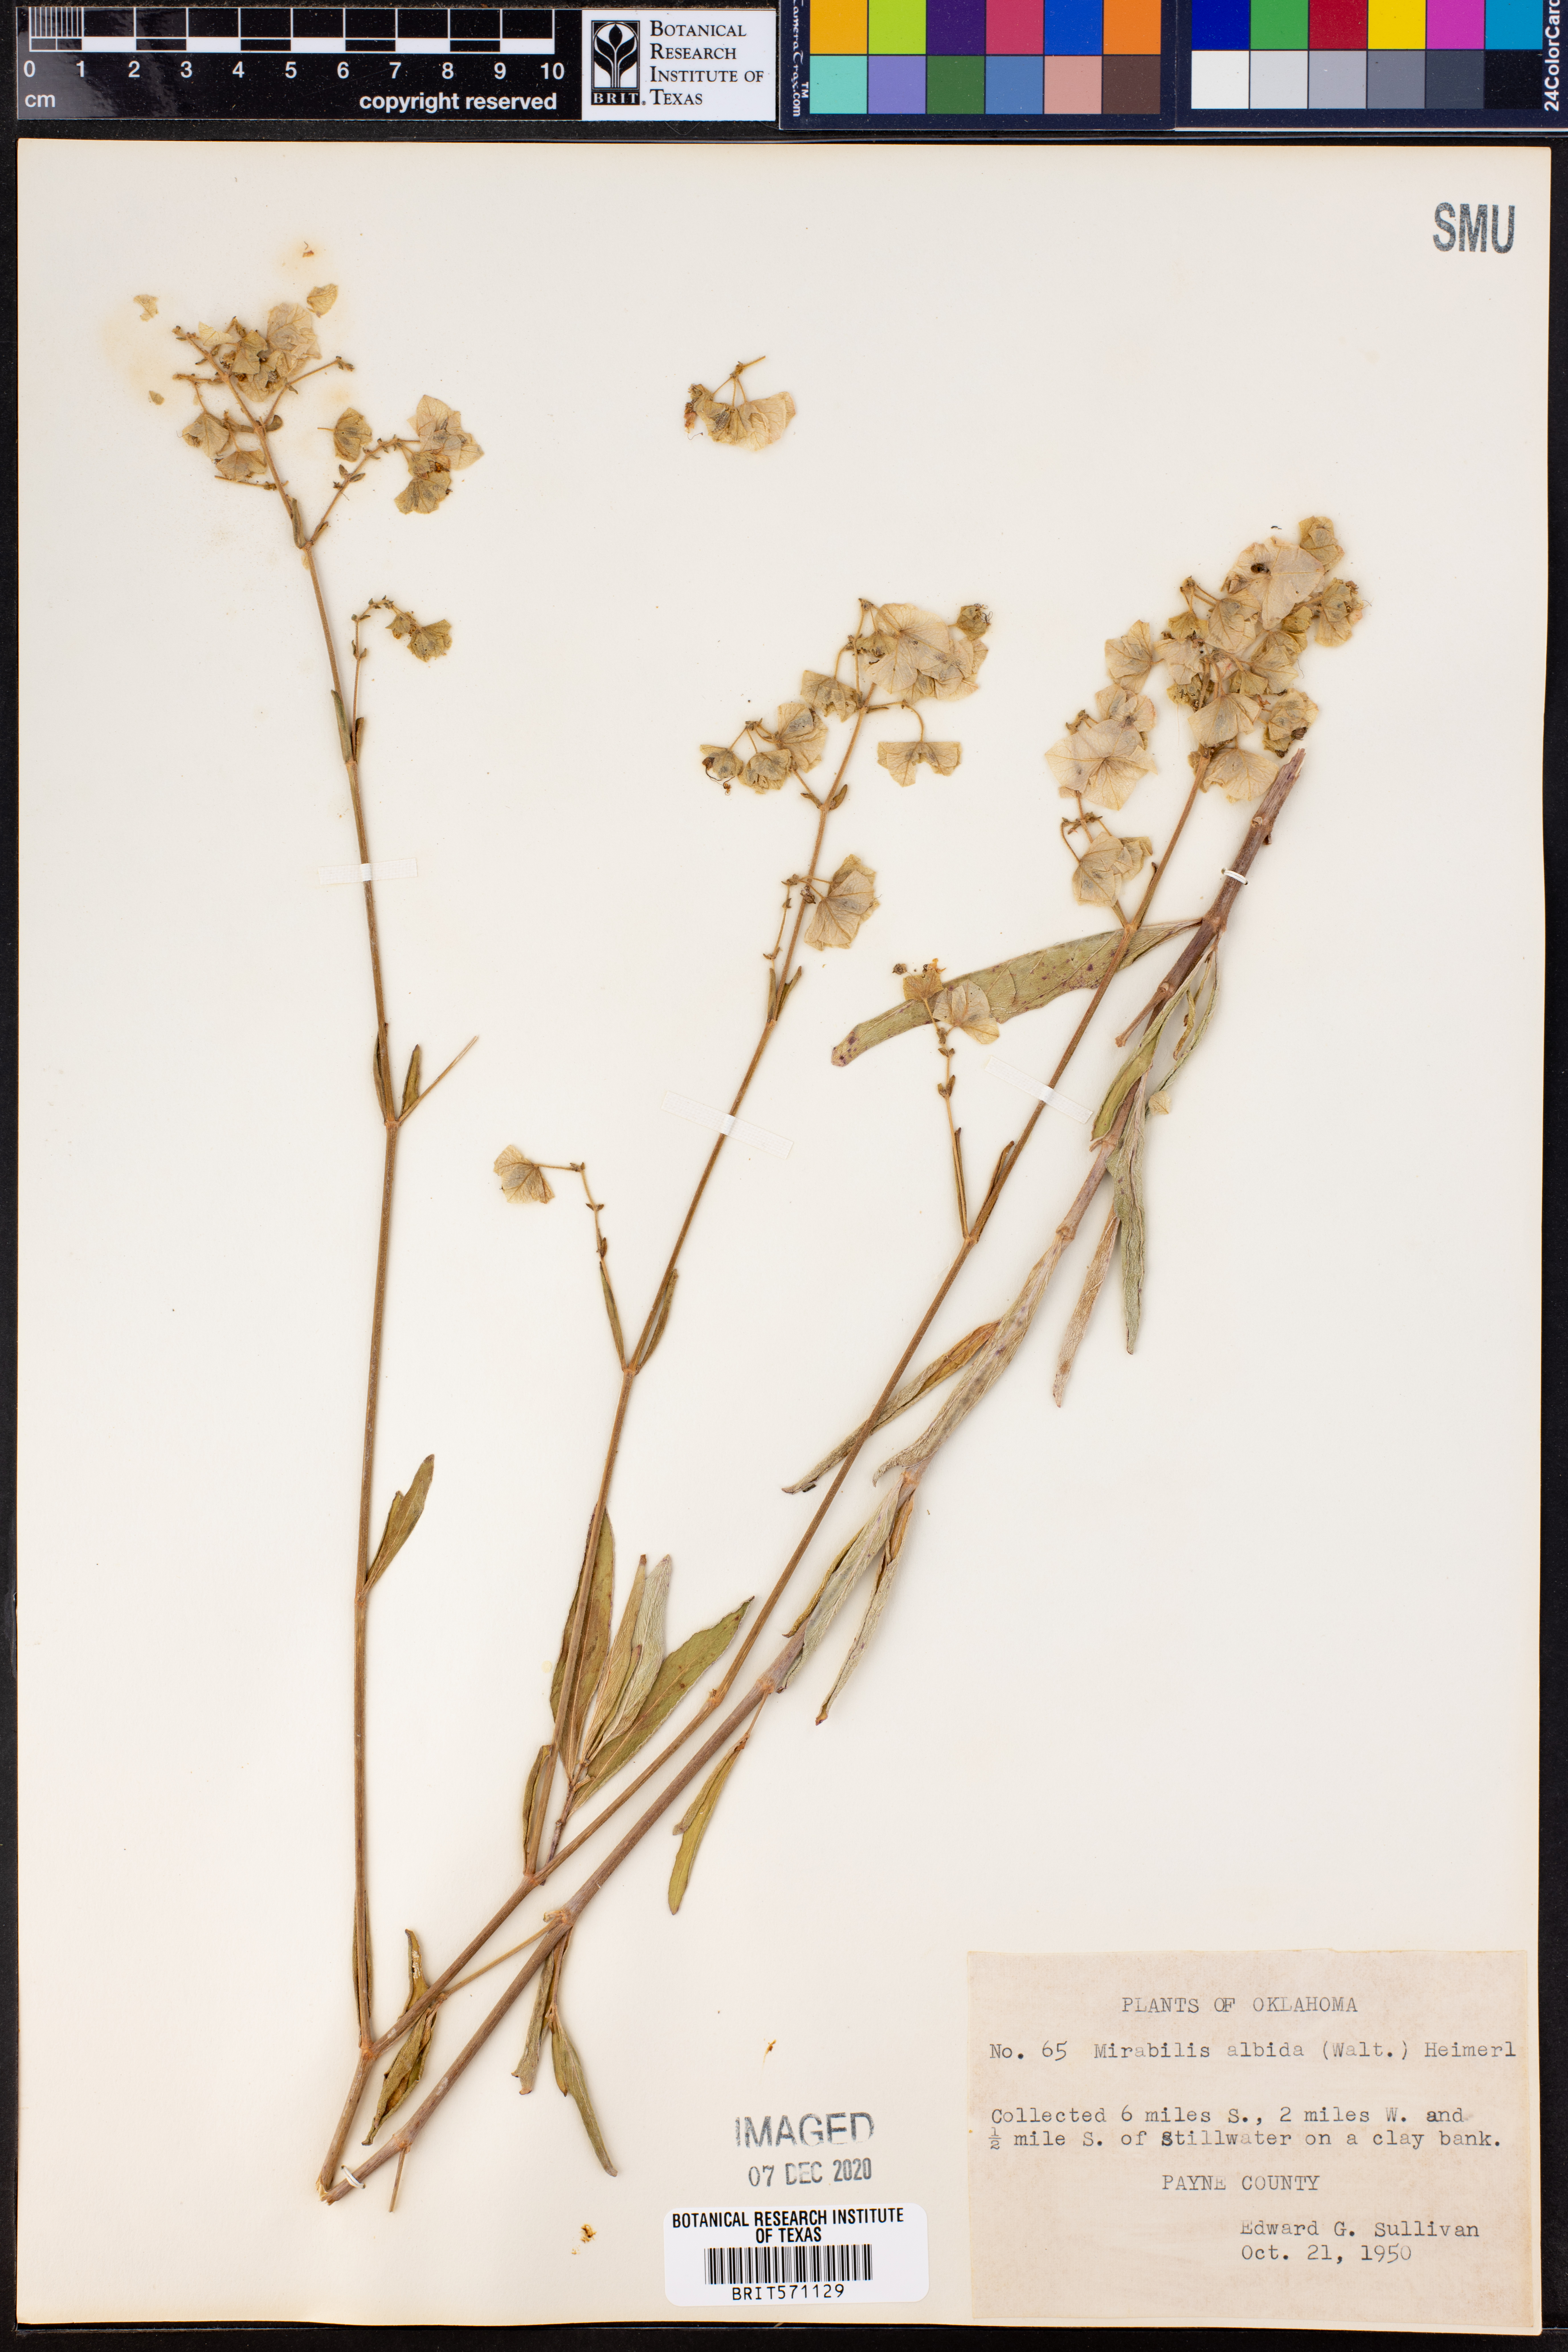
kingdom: Plantae
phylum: Tracheophyta
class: Magnoliopsida
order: Caryophyllales
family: Nyctaginaceae
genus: Mirabilis
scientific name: Mirabilis albida
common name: Hairy four-o'clock
